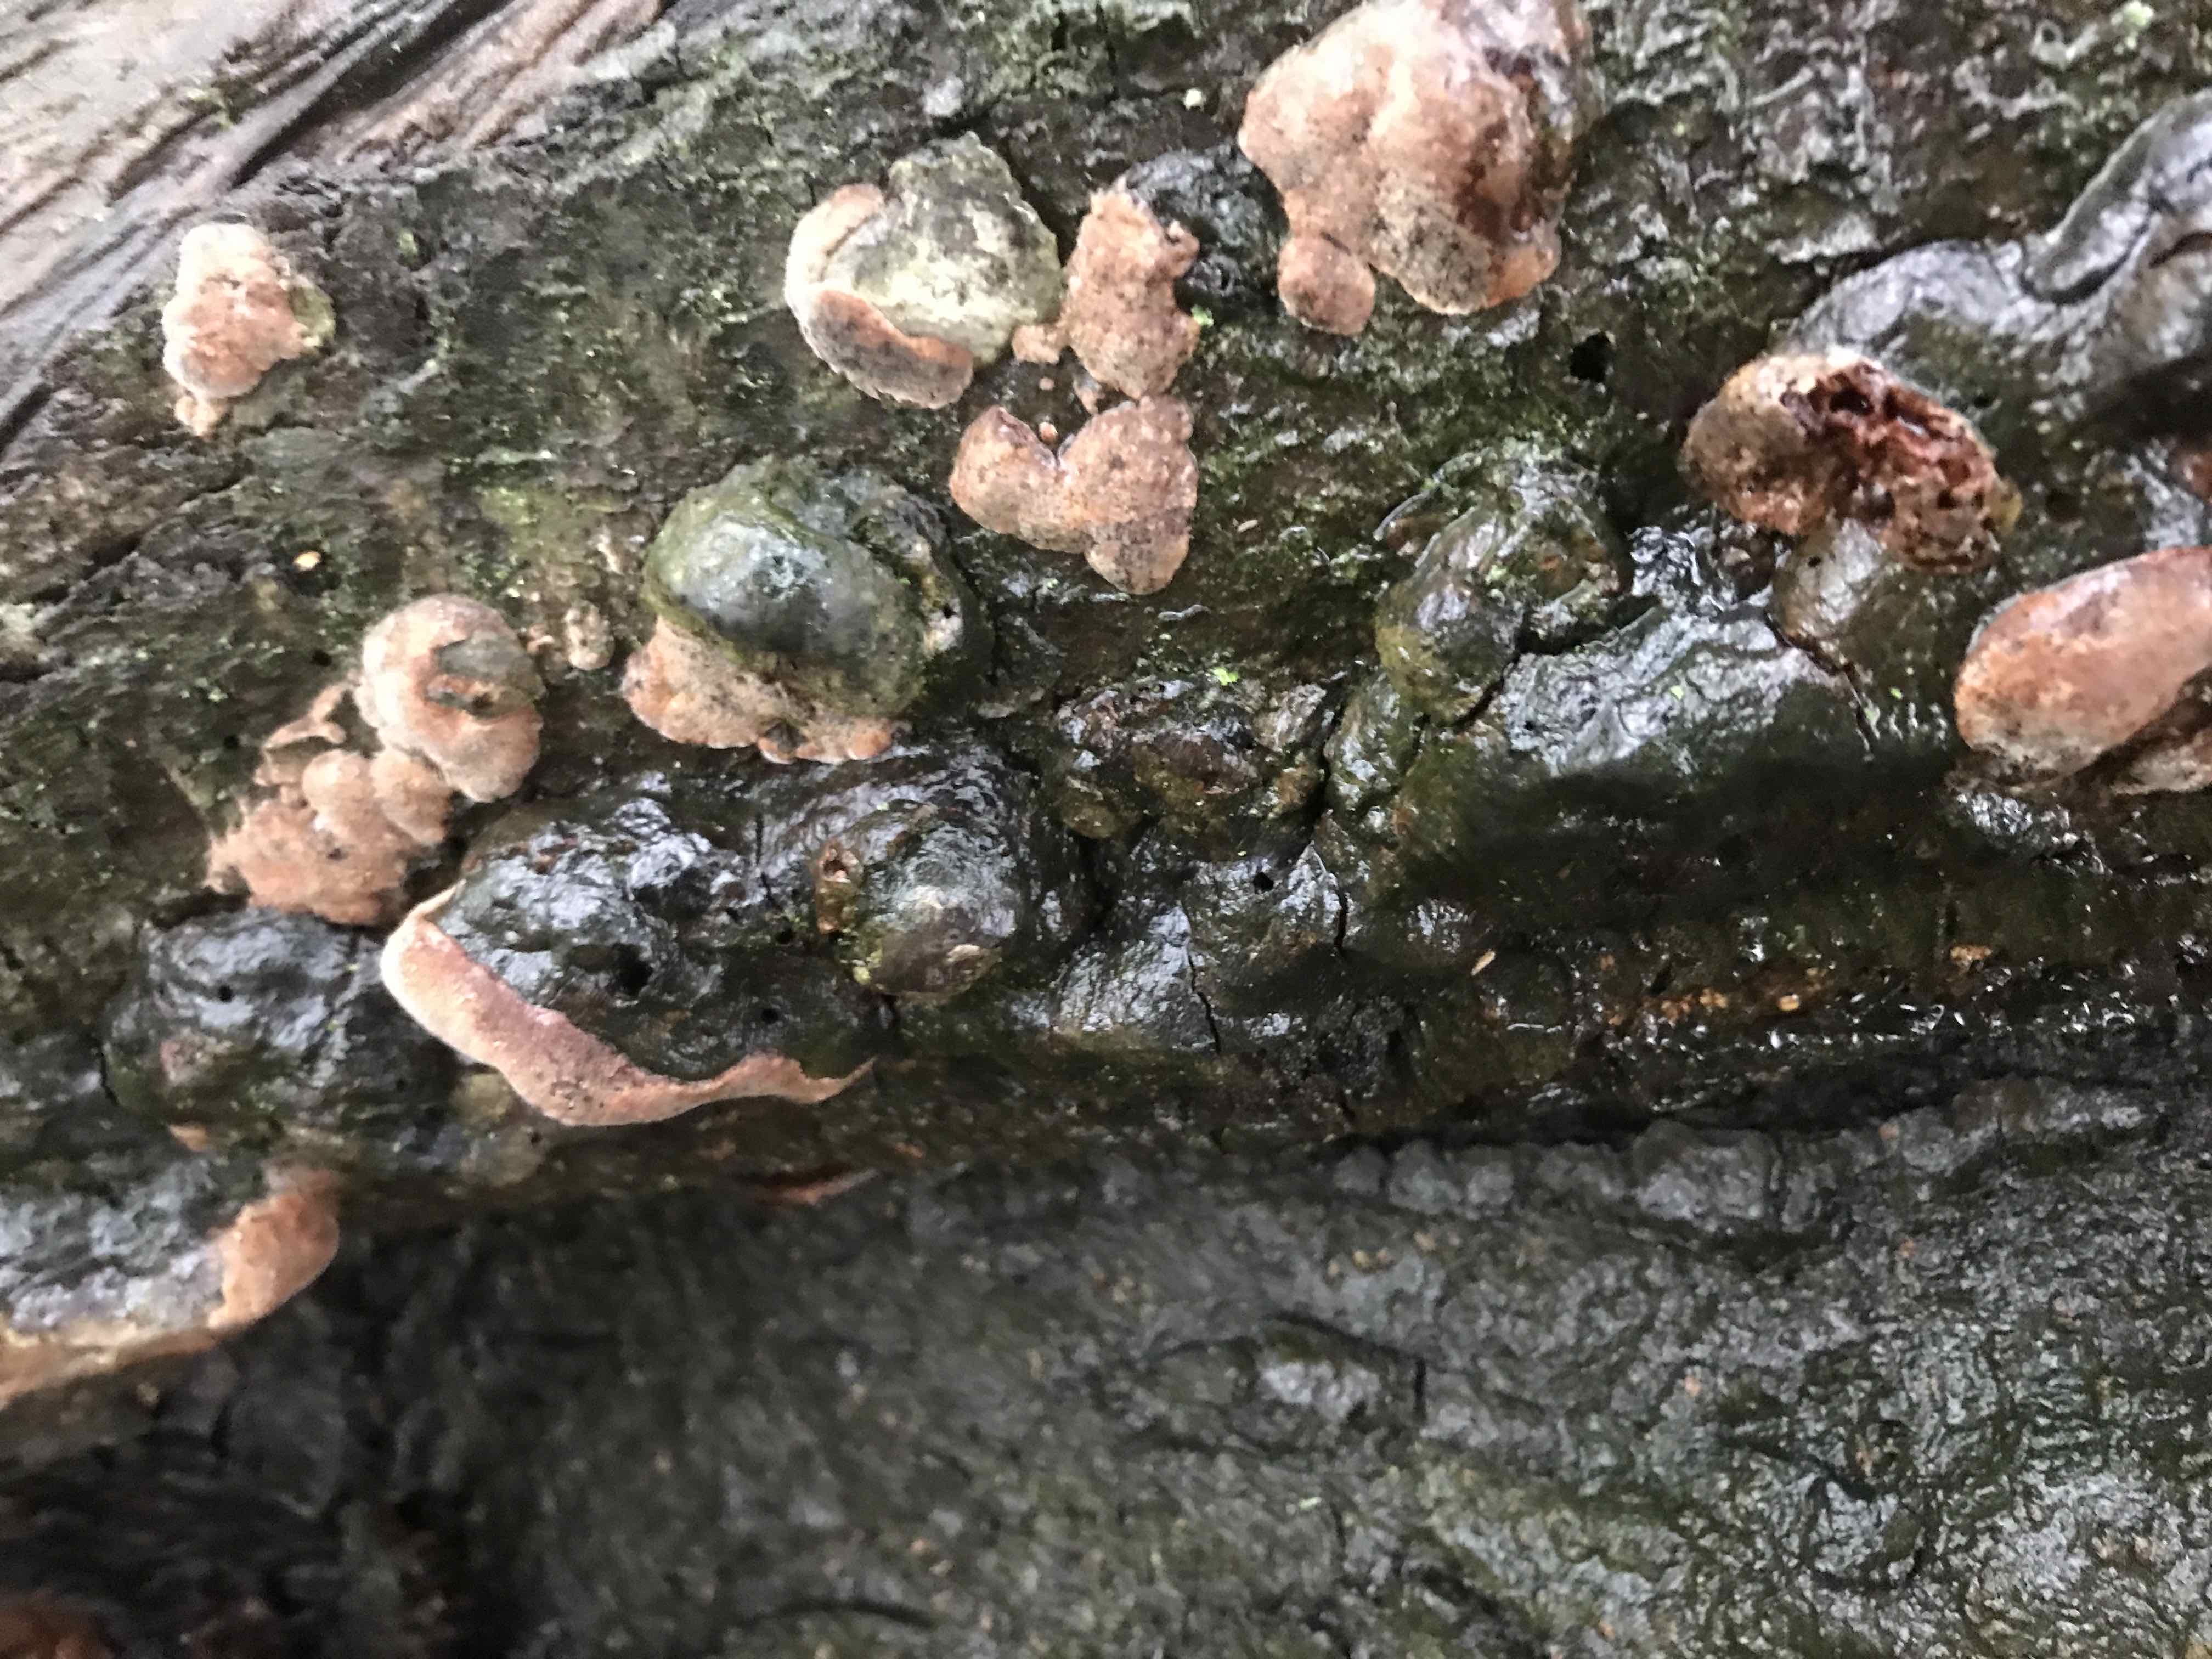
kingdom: Fungi
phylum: Basidiomycota
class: Agaricomycetes
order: Hymenochaetales
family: Hymenochaetaceae
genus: Phellinus
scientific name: Phellinus pomaceus
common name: blomme-ildporesvamp
